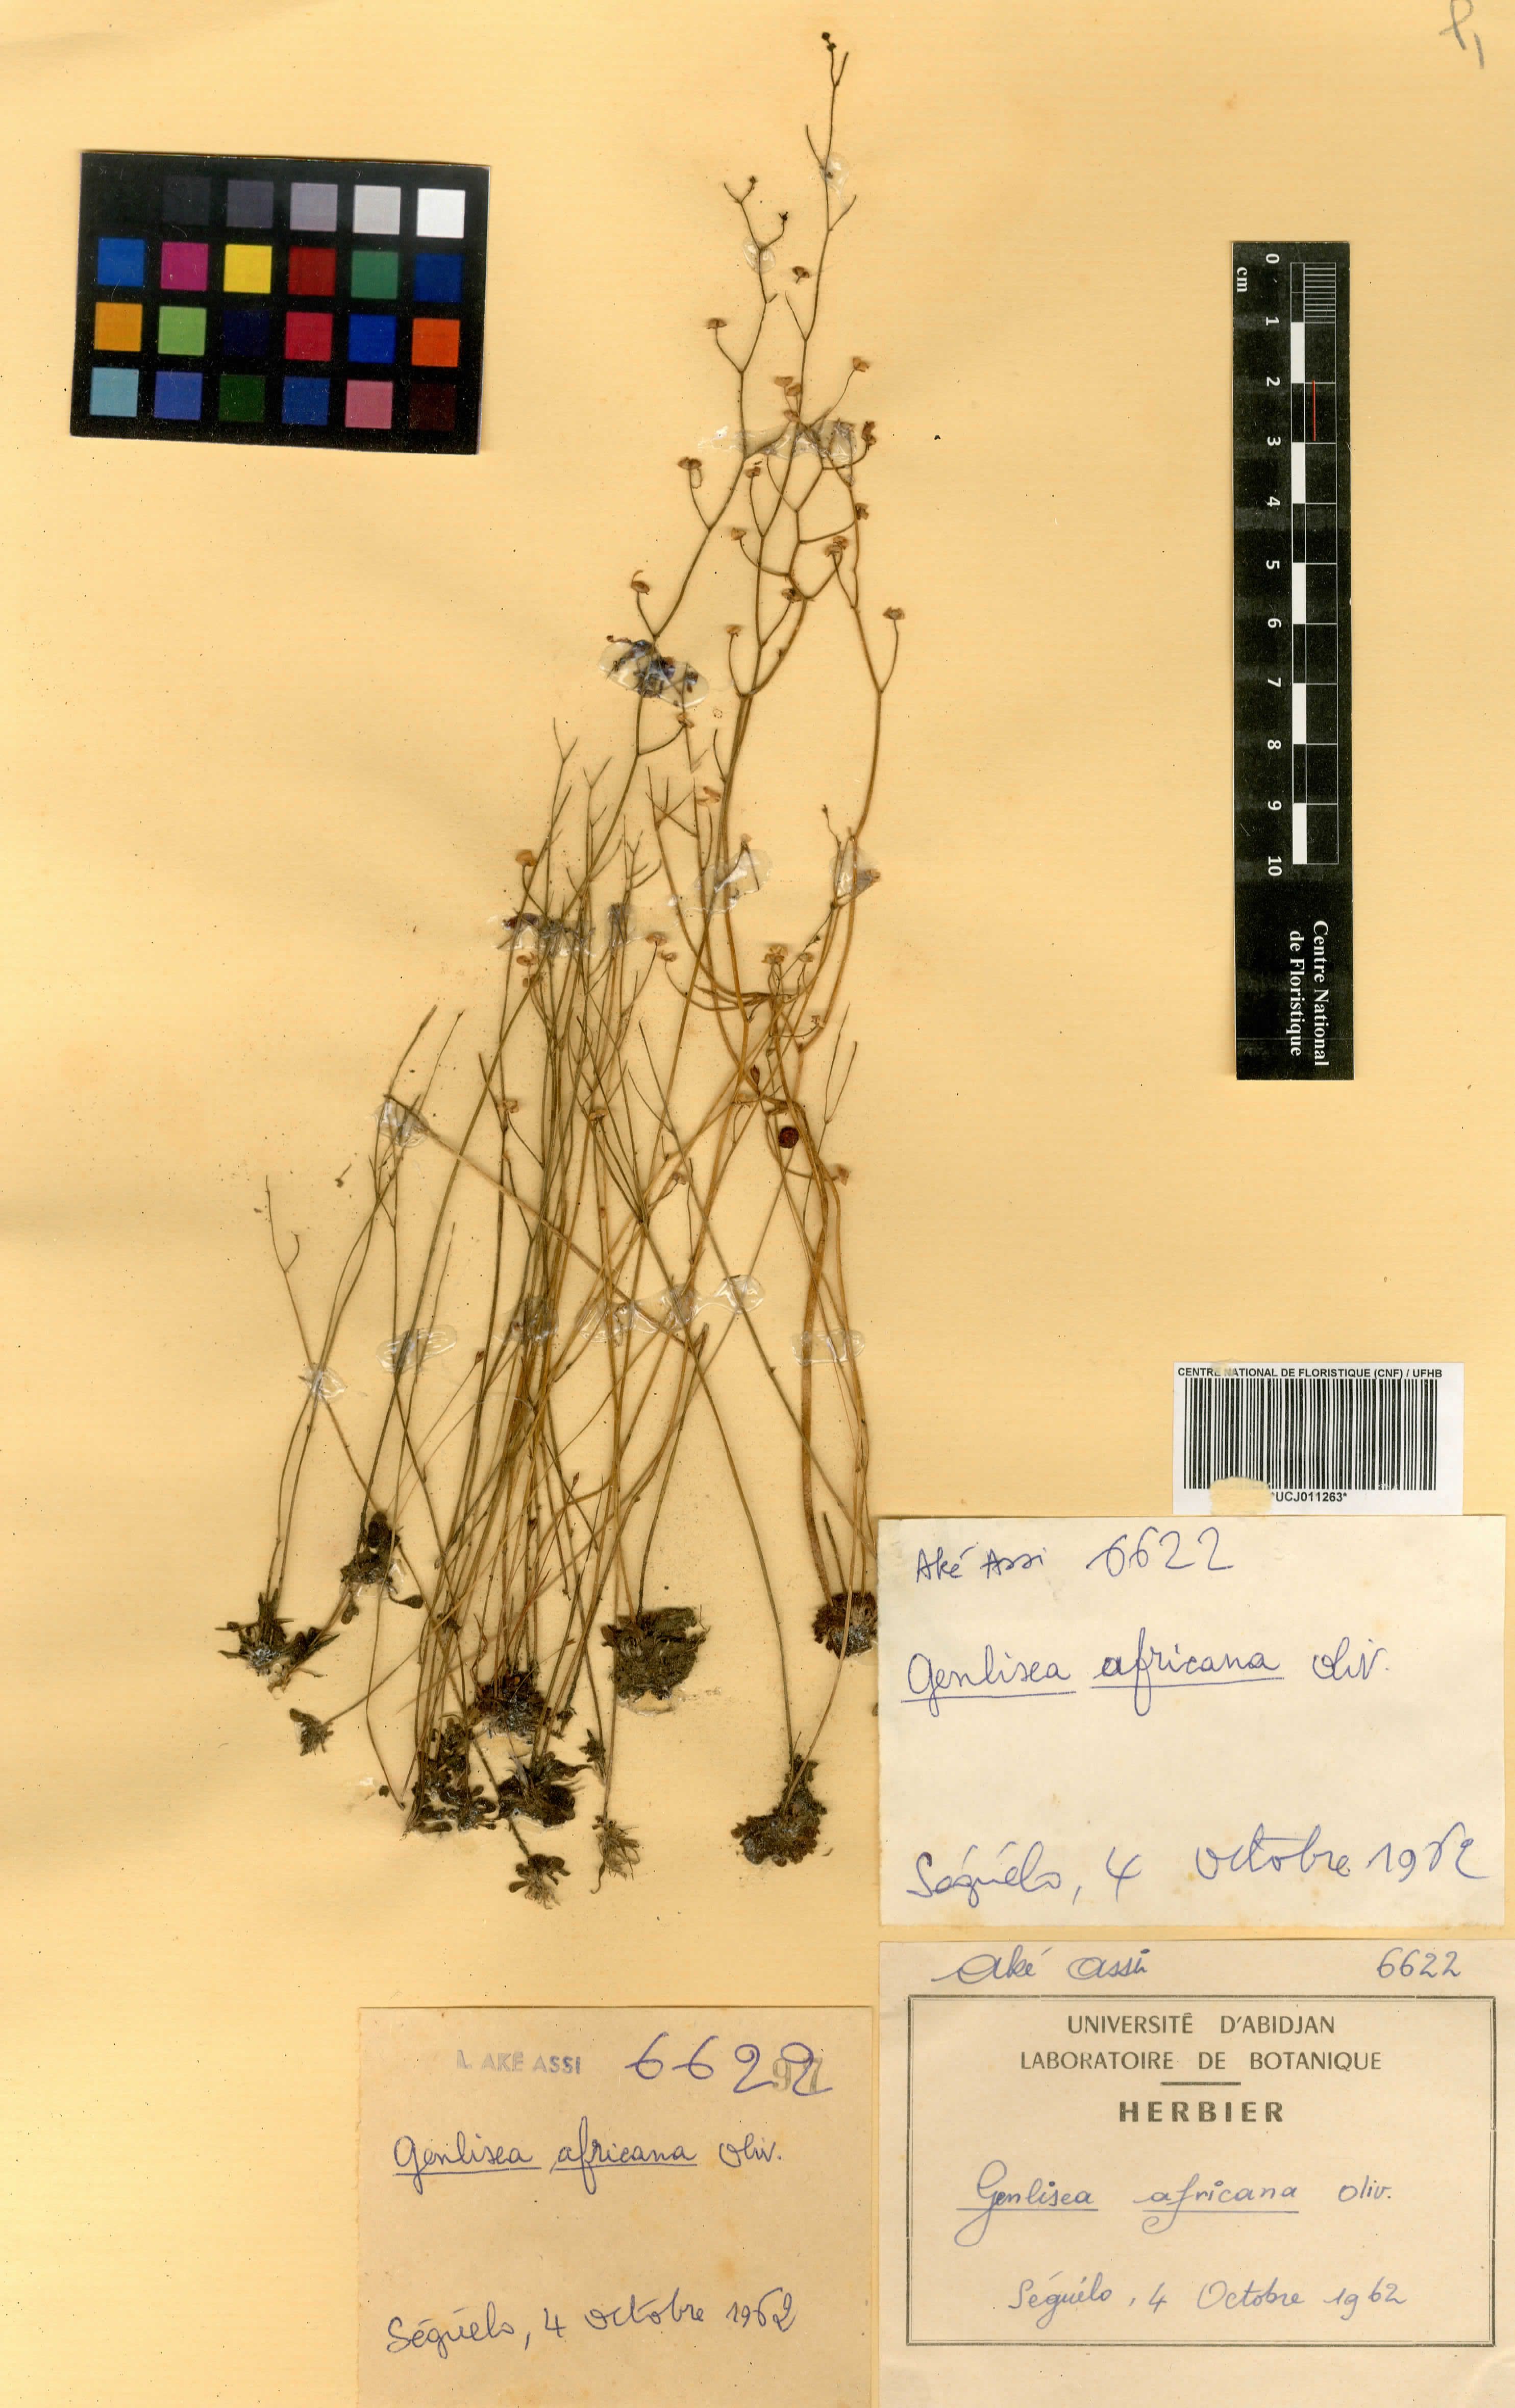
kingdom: Plantae
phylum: Tracheophyta
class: Magnoliopsida
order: Lamiales
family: Lentibulariaceae
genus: Genlisea
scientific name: Genlisea africana
